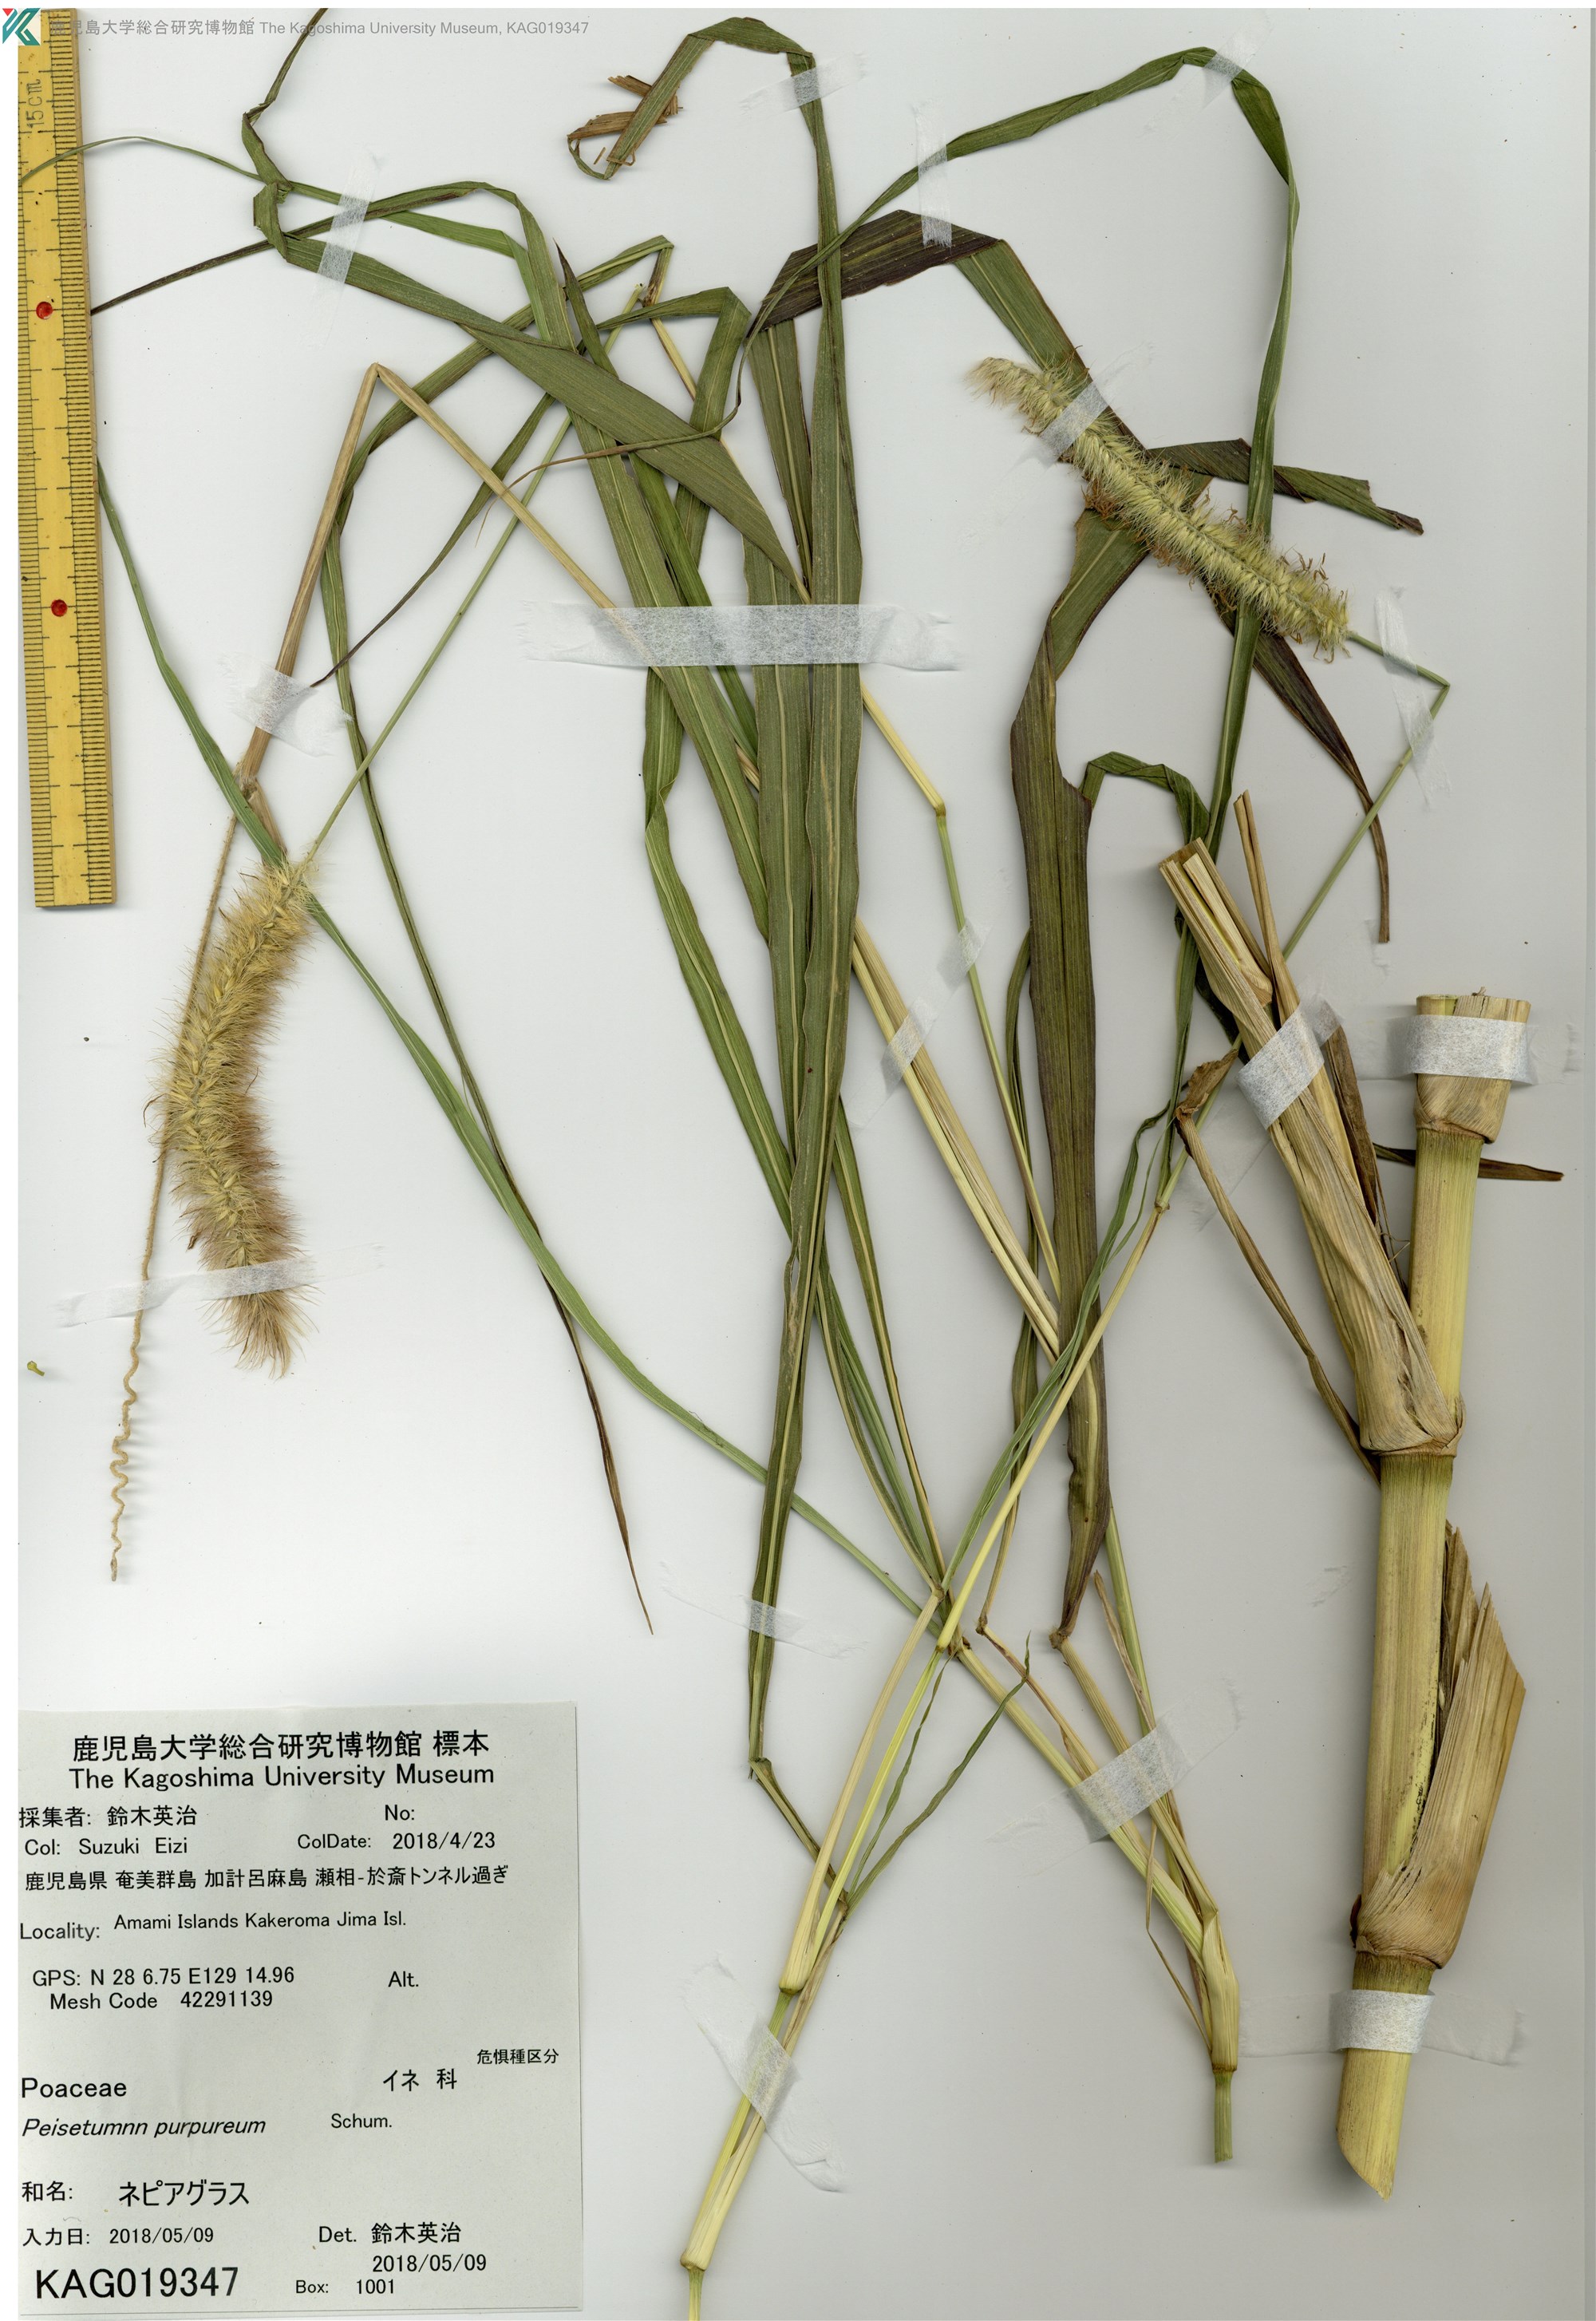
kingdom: Plantae
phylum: Tracheophyta
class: Liliopsida
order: Poales
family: Poaceae
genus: Cenchrus
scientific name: Cenchrus purpureus
